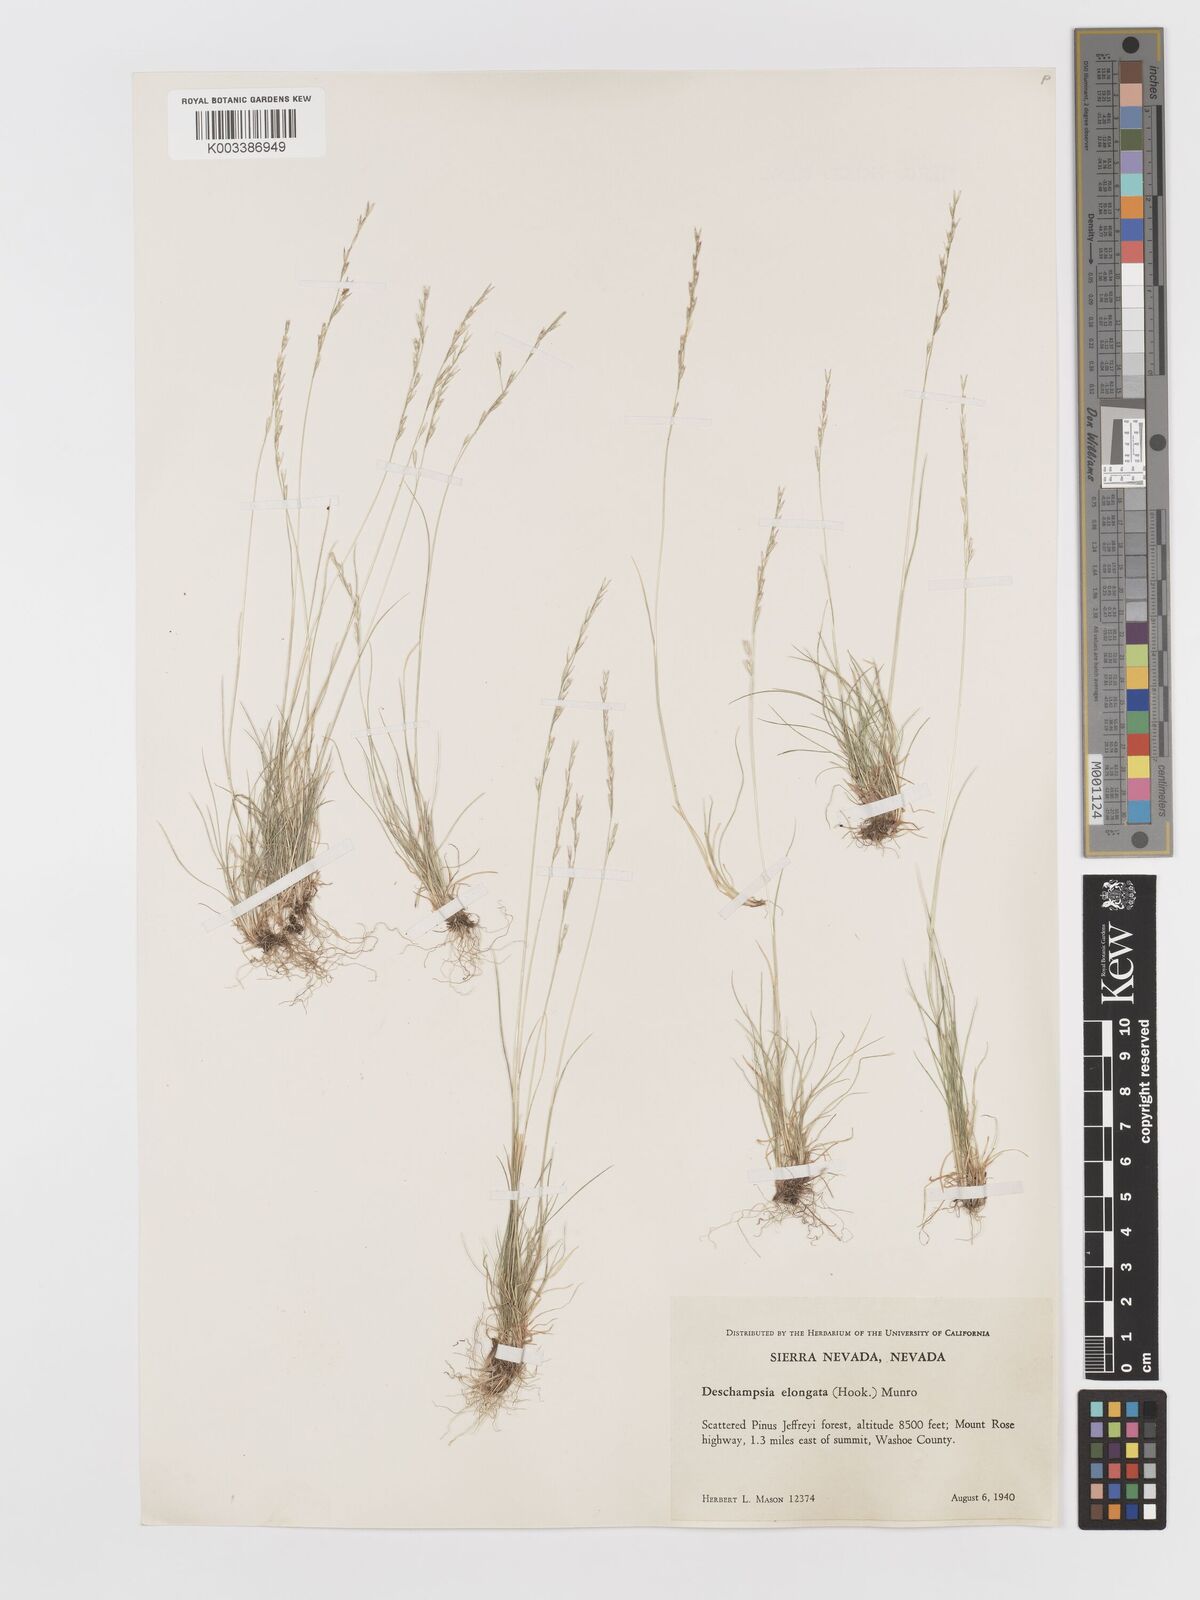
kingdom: Plantae
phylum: Tracheophyta
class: Liliopsida
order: Poales
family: Poaceae
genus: Deschampsia
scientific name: Deschampsia elongata
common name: Slender hairgrass
